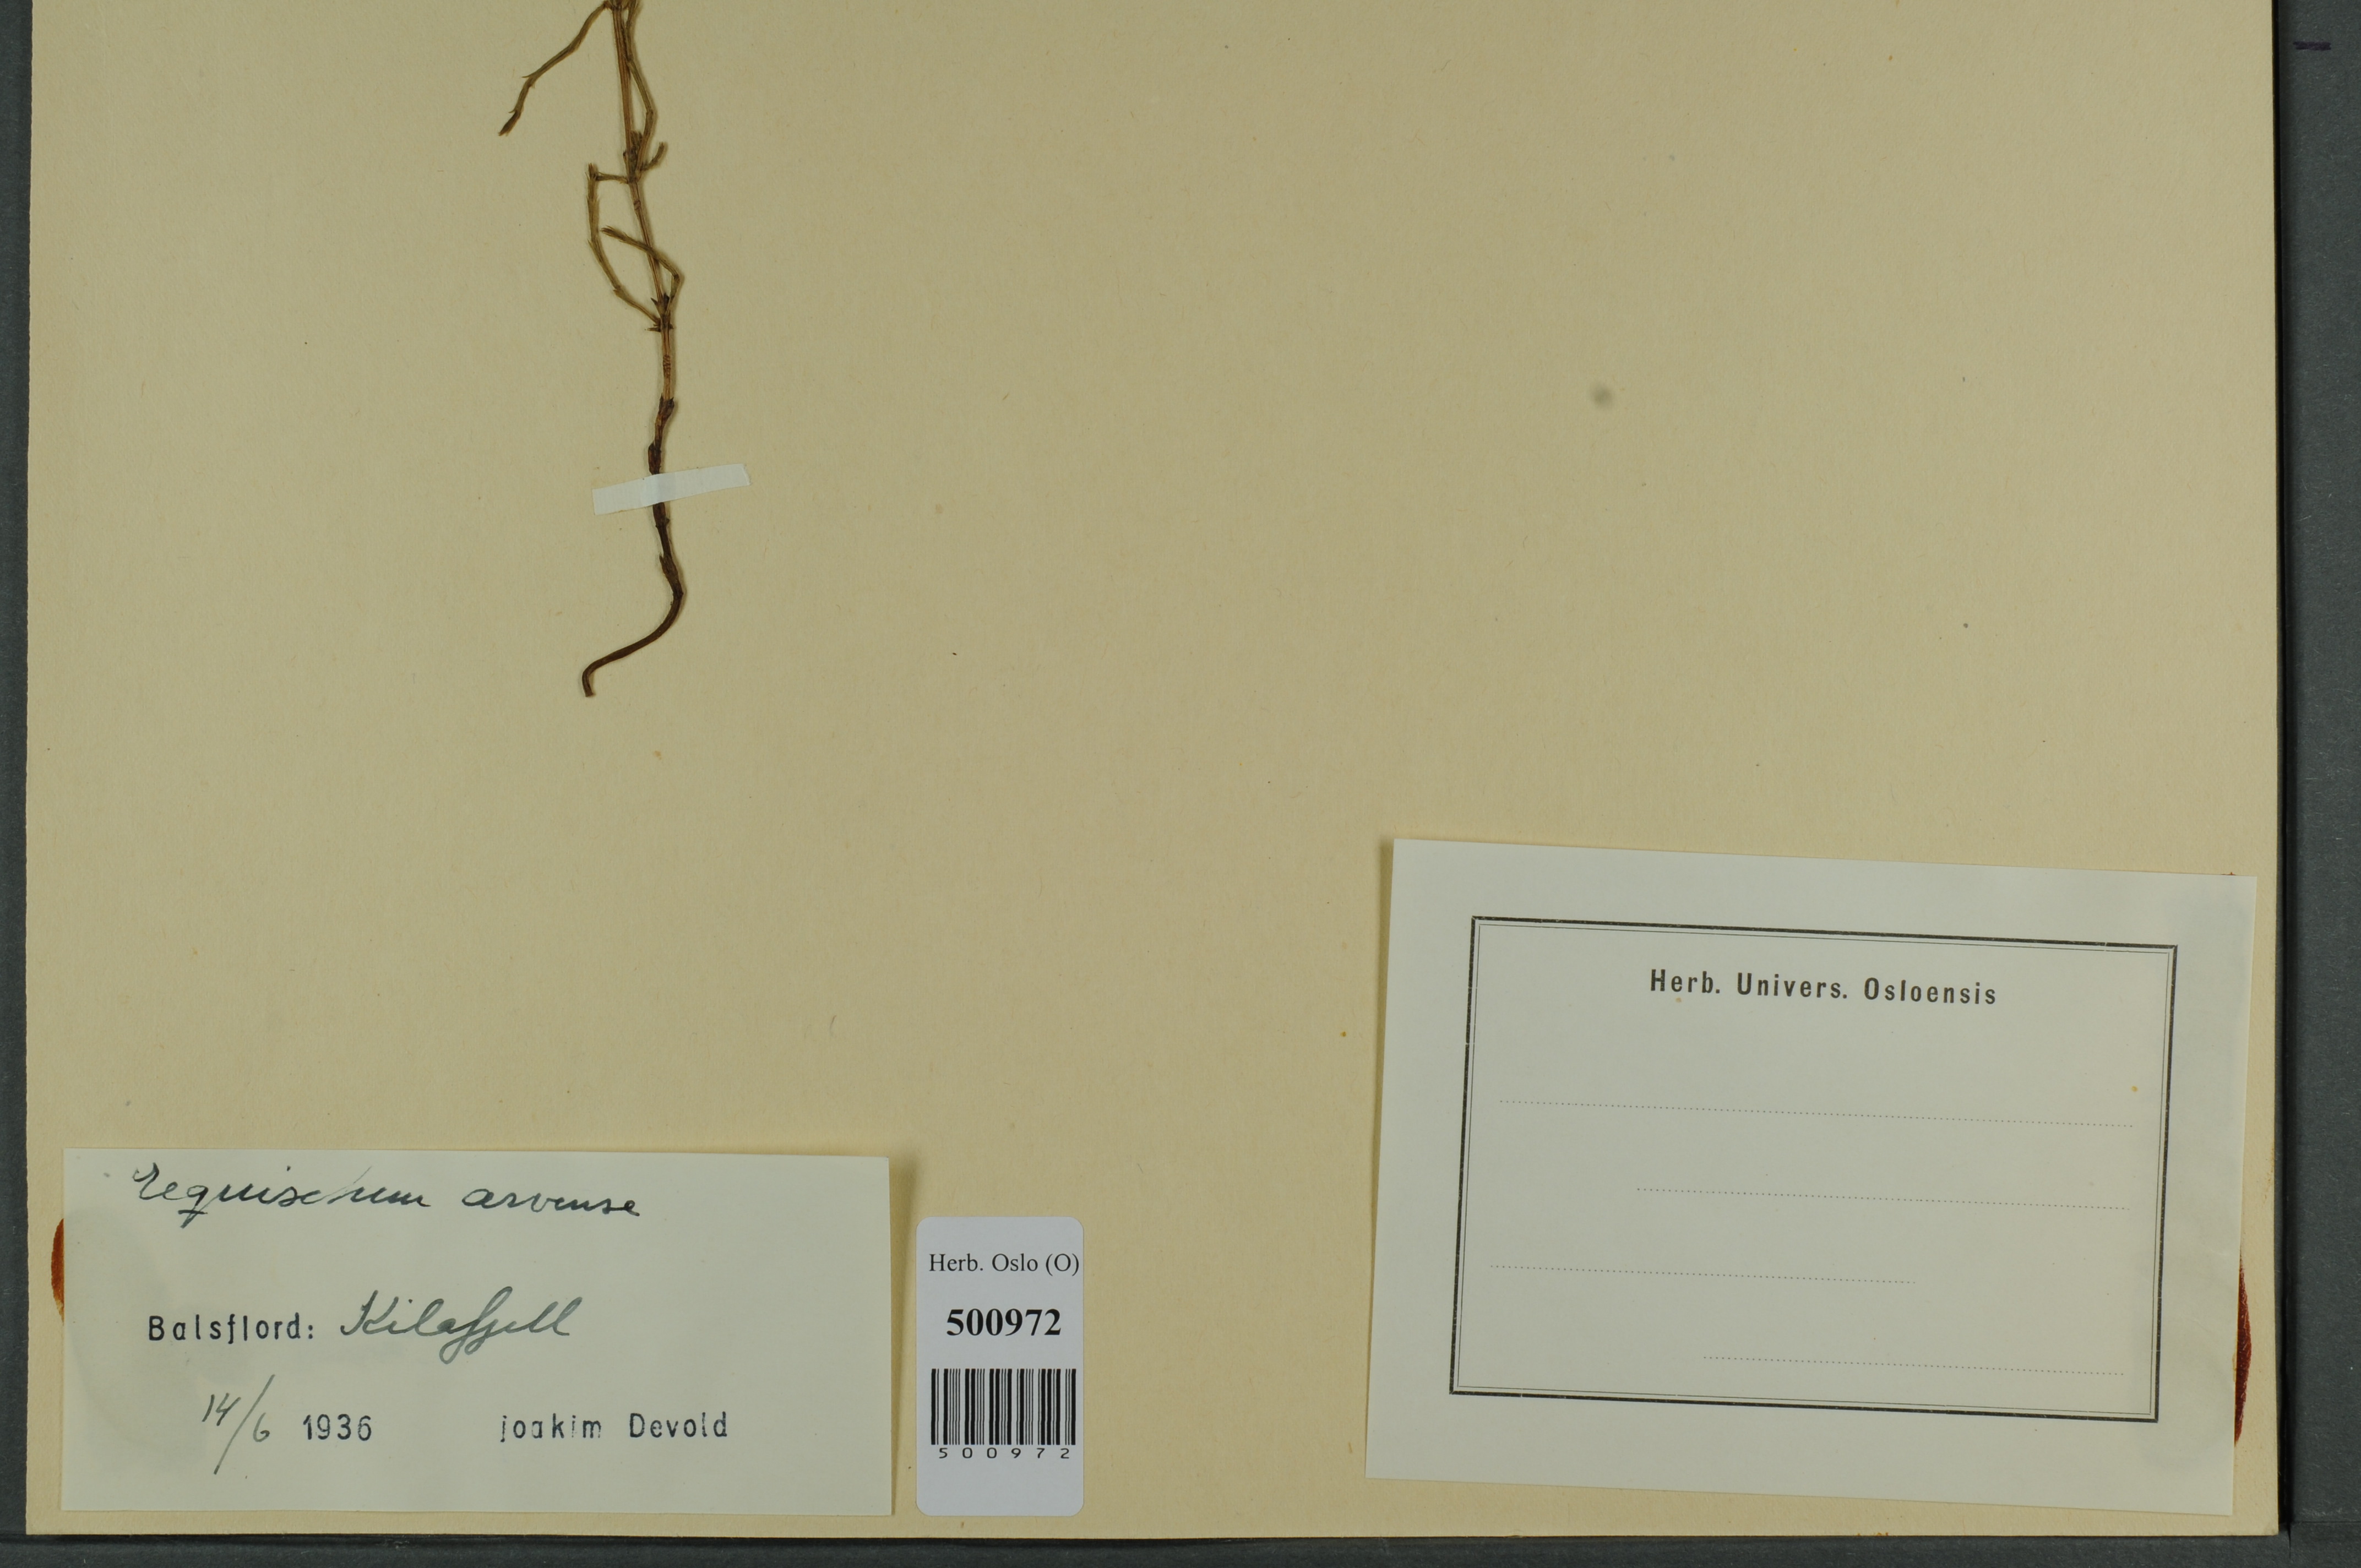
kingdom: Plantae
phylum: Tracheophyta
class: Polypodiopsida
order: Equisetales
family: Equisetaceae
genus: Equisetum
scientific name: Equisetum arvense
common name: Field horsetail
